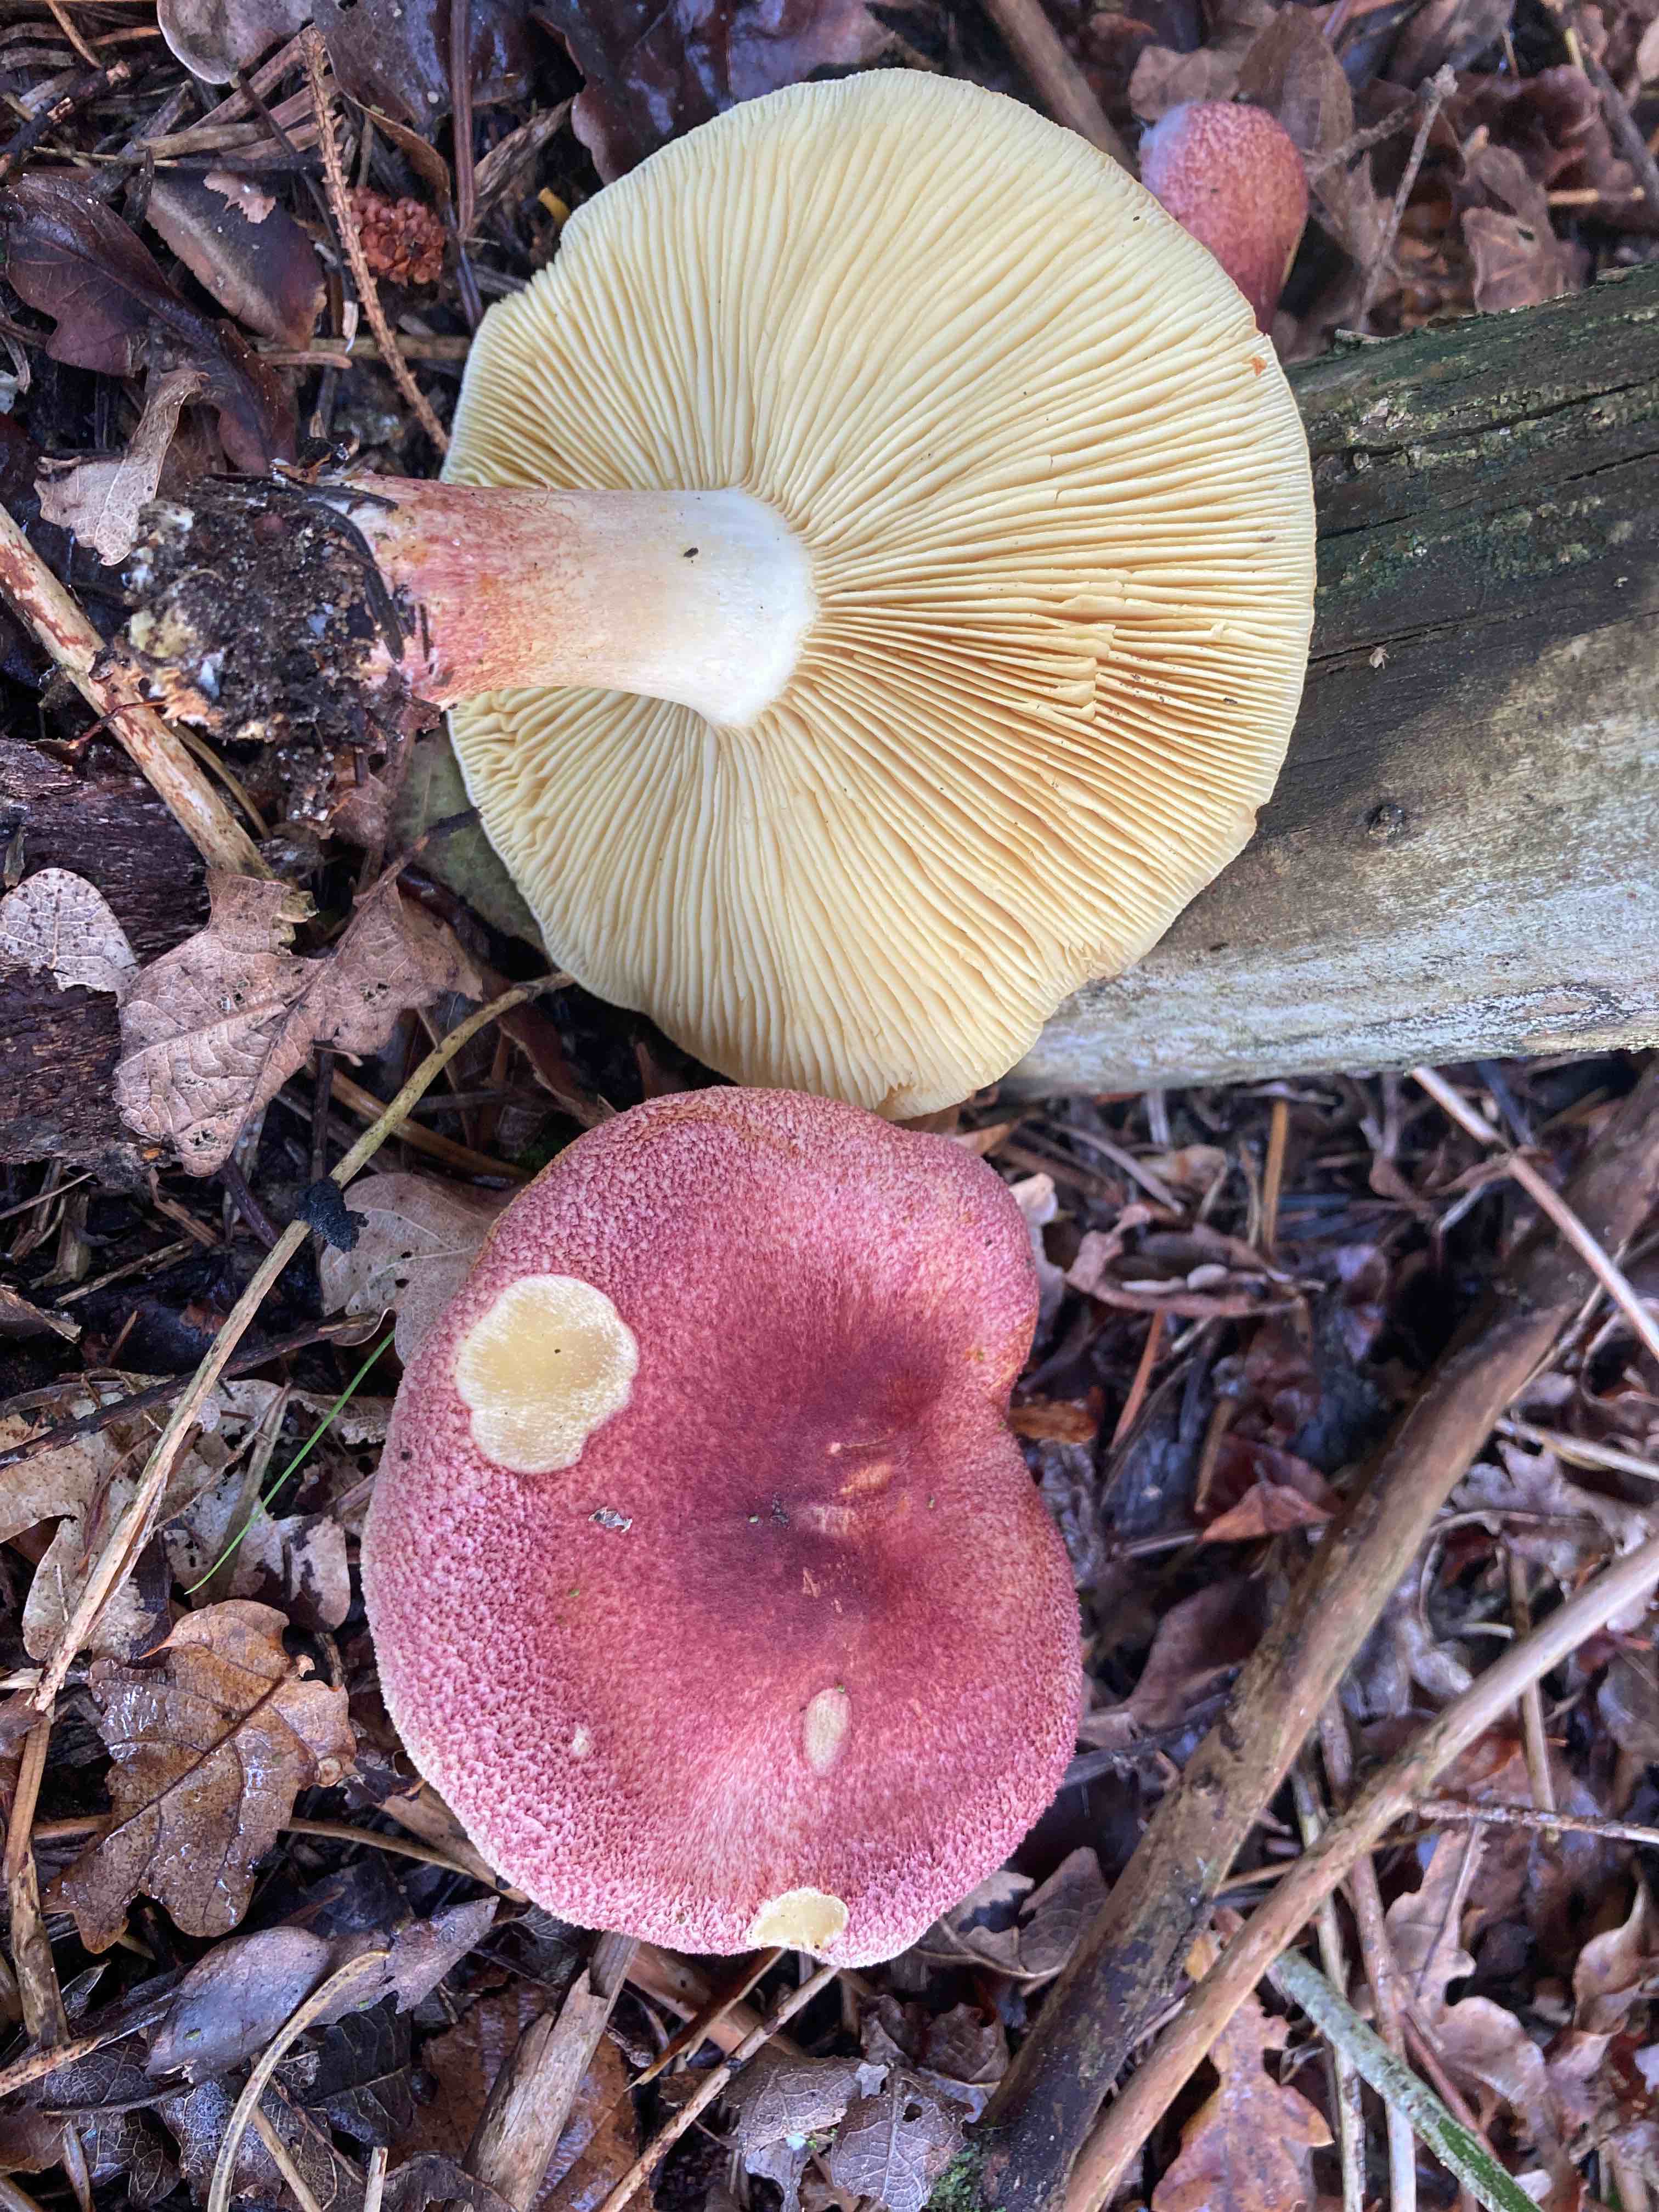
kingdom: Fungi
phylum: Basidiomycota
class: Agaricomycetes
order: Agaricales
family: Tricholomataceae
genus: Tricholomopsis
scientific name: Tricholomopsis rutilans
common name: purpur-væbnerhat
